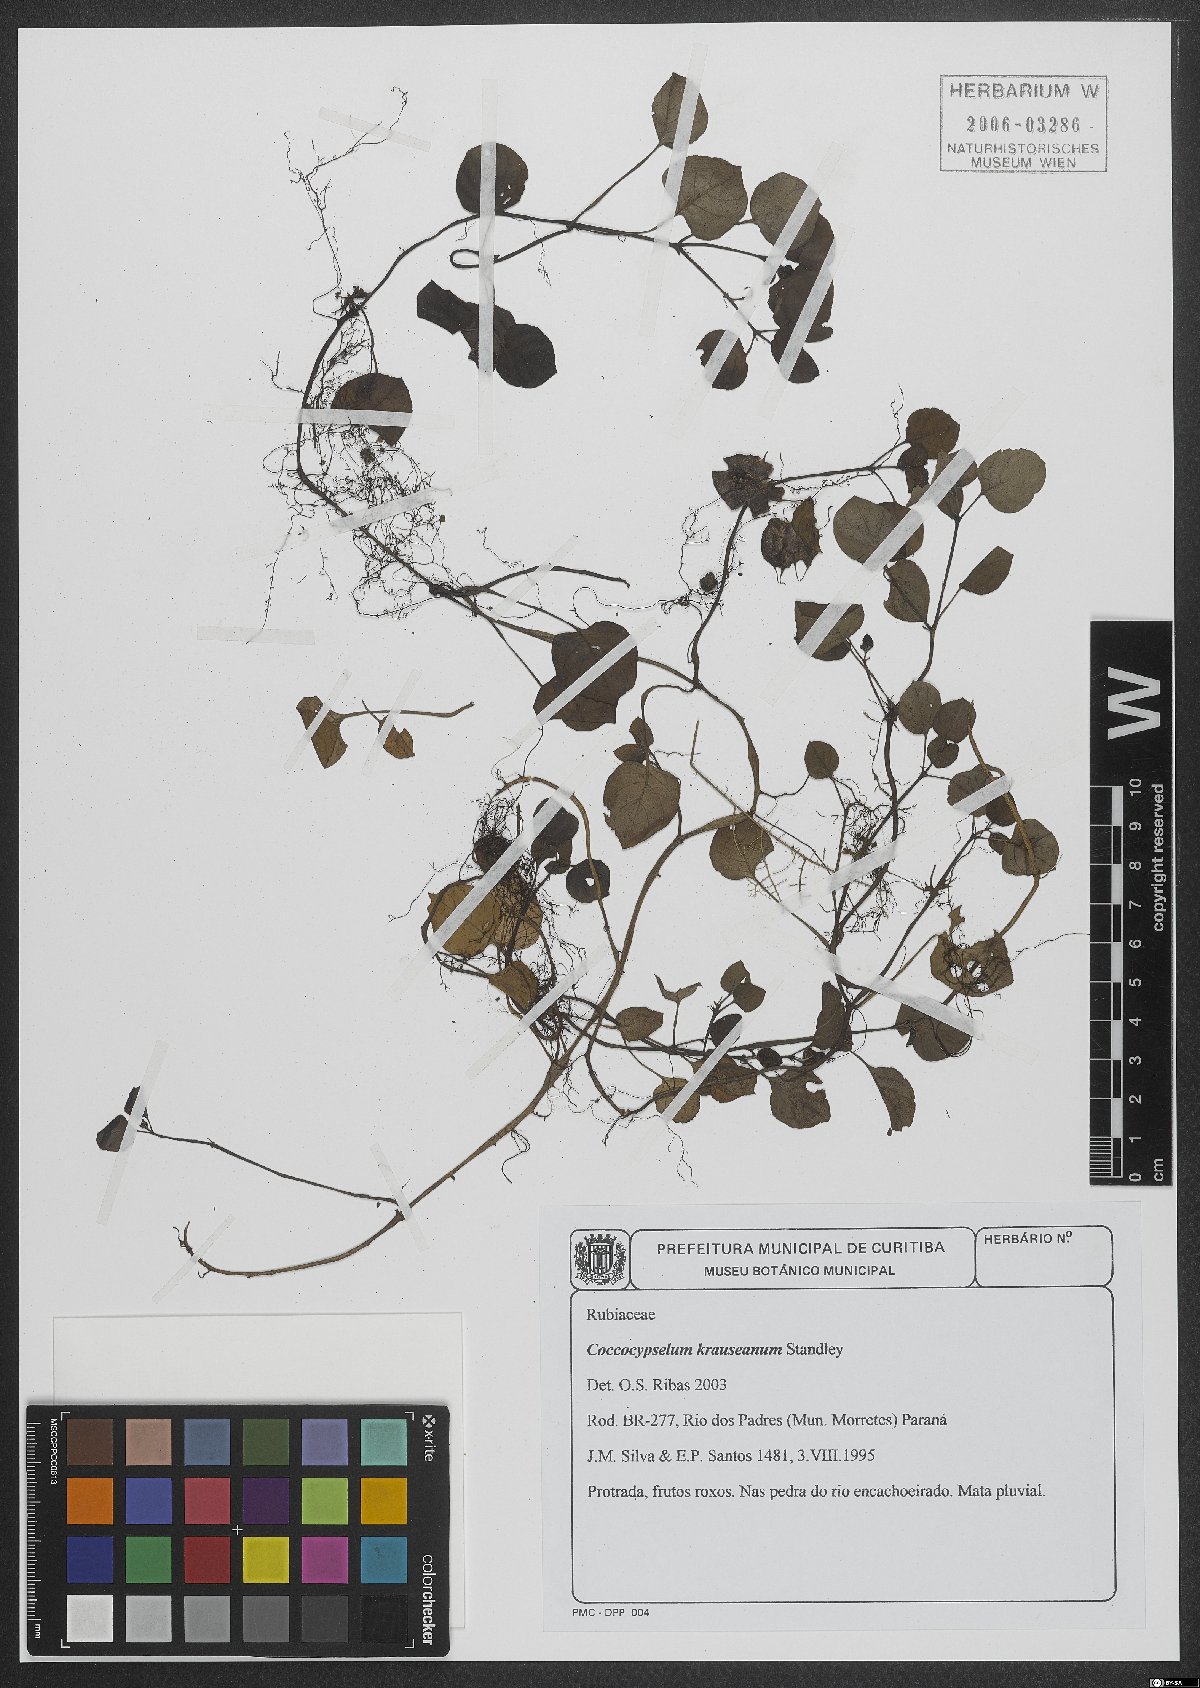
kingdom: Plantae
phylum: Tracheophyta
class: Magnoliopsida
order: Gentianales
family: Rubiaceae
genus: Coccocypselum
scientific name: Coccocypselum geophiloides
